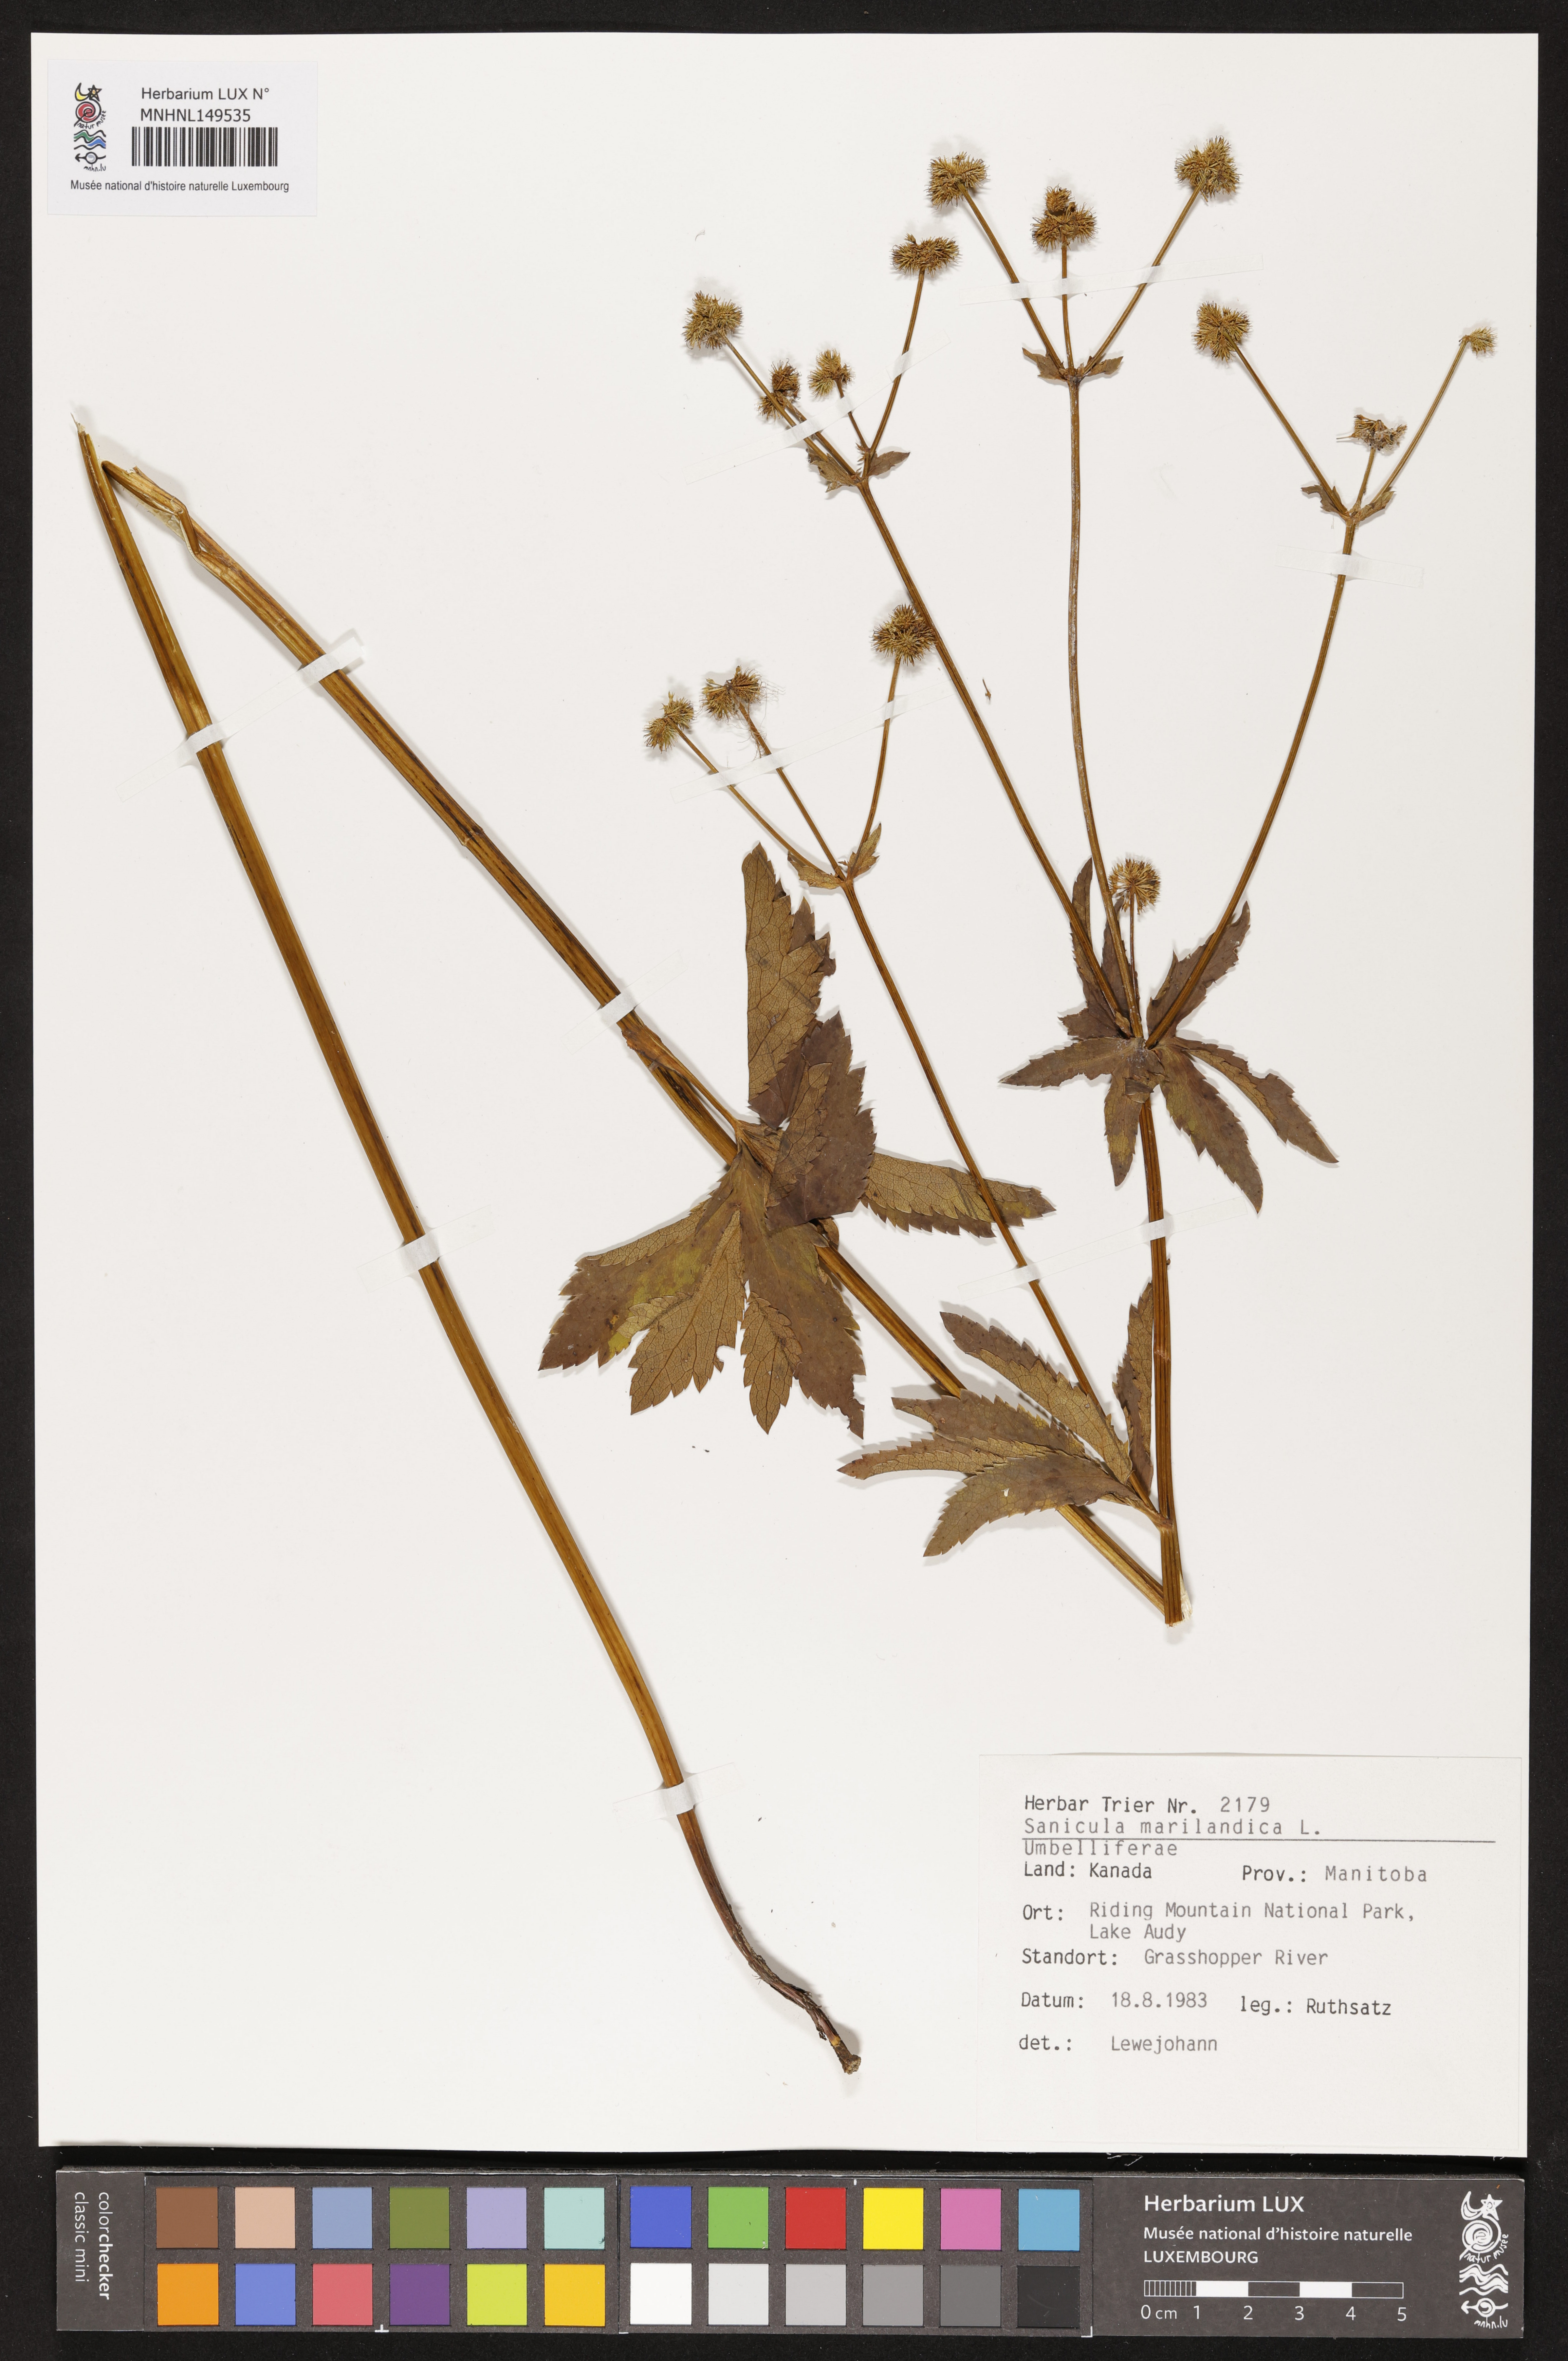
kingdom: Plantae
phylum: Tracheophyta
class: Magnoliopsida
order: Apiales
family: Apiaceae
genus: Sanicula
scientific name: Sanicula marilandica
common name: Black snakeroot
